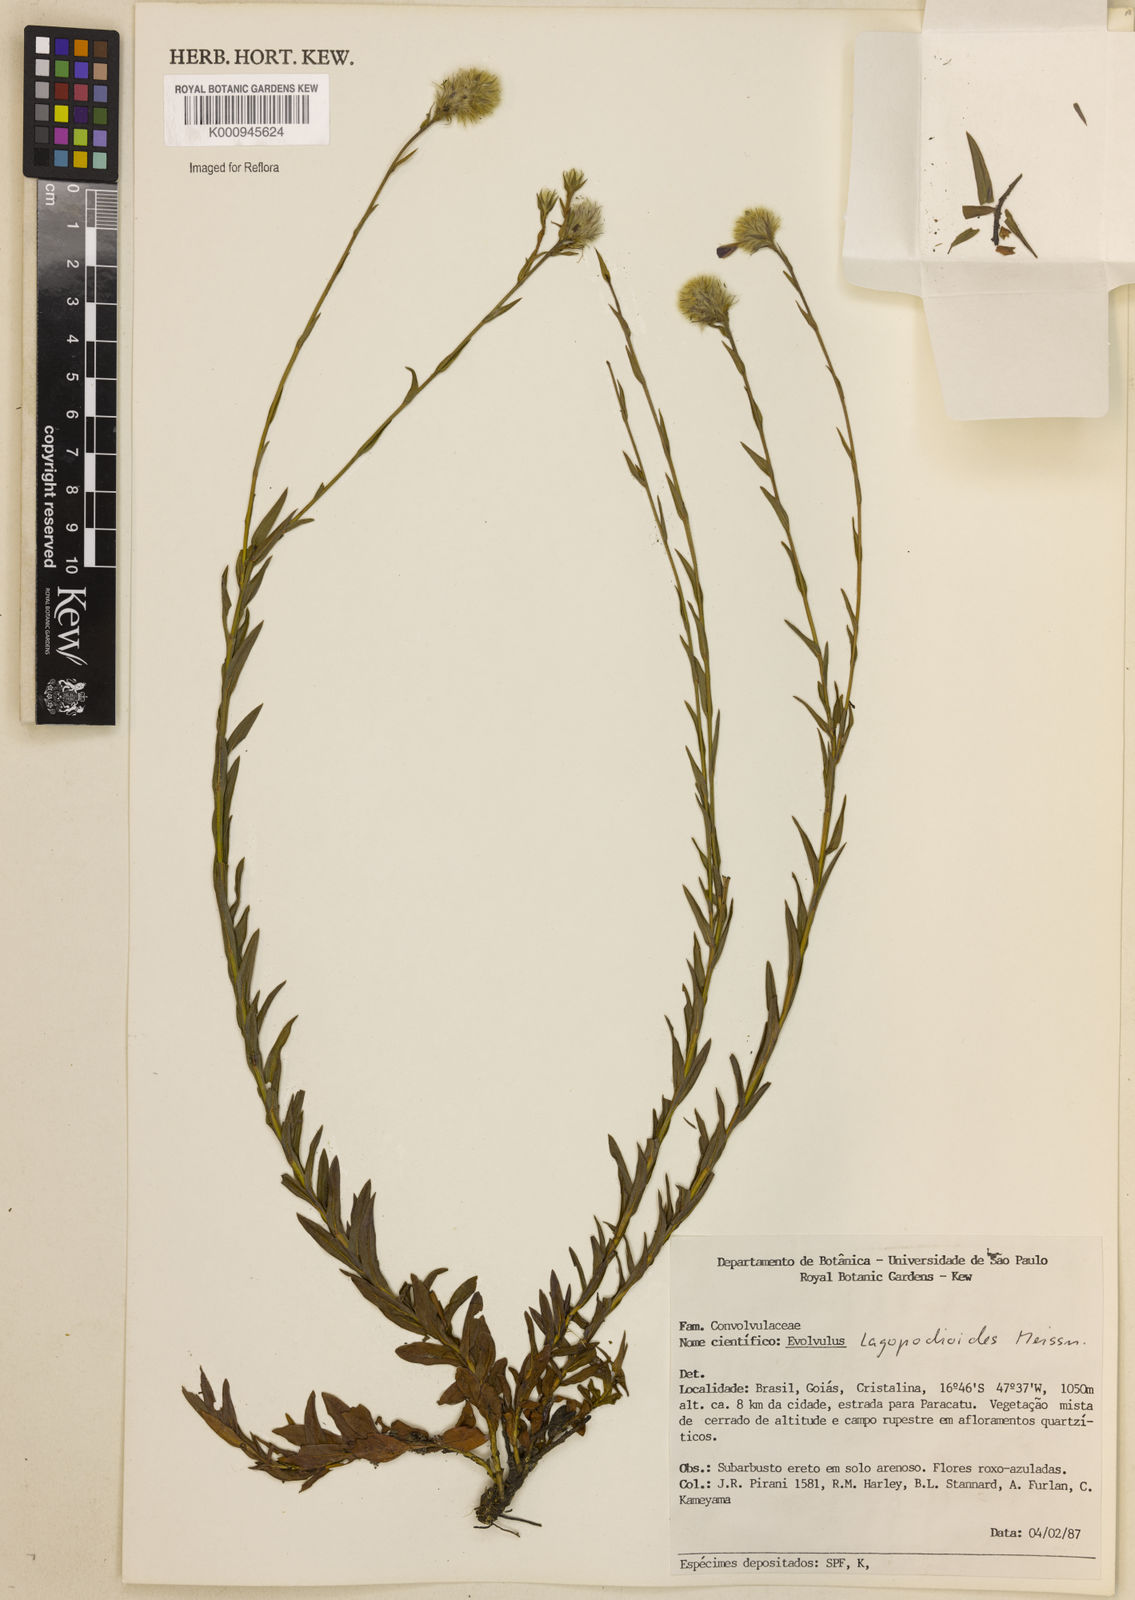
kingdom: Plantae
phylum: Tracheophyta
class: Magnoliopsida
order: Solanales
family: Convolvulaceae
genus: Evolvulus
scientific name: Evolvulus lagopodioides
